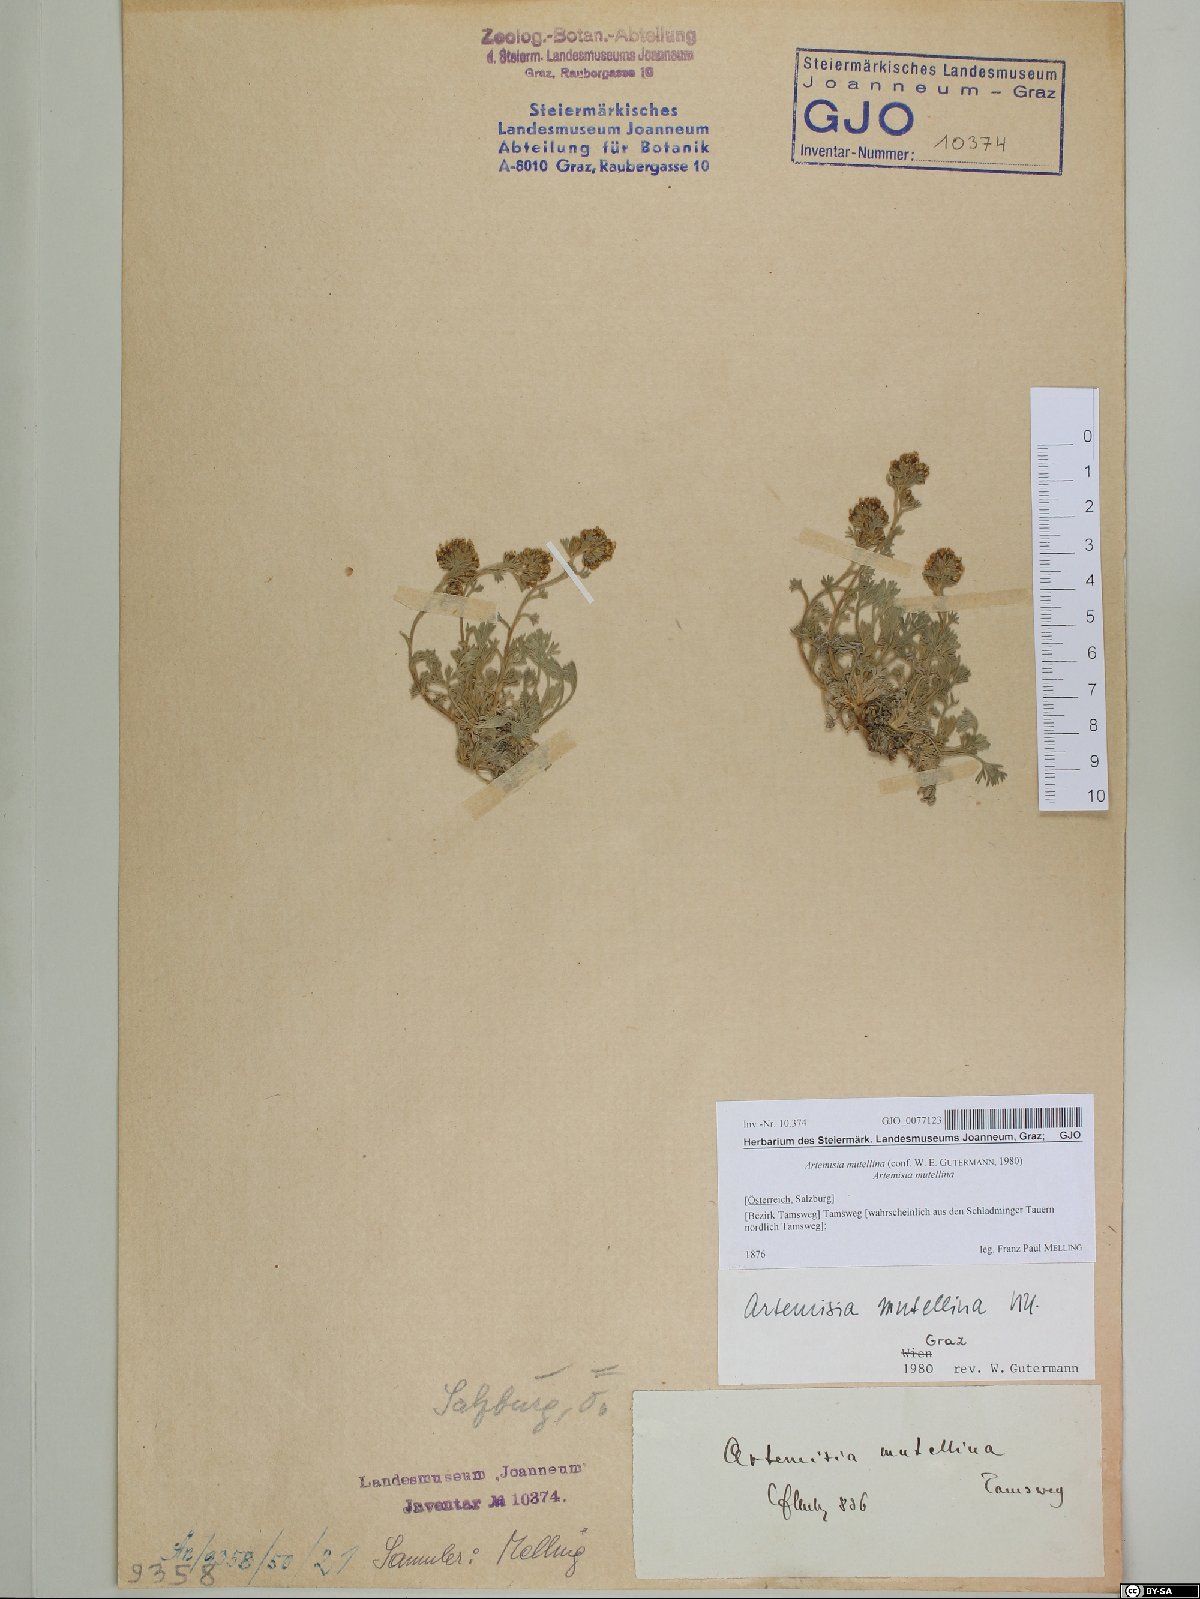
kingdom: Plantae
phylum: Tracheophyta
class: Magnoliopsida
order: Asterales
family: Asteraceae
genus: Artemisia
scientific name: Artemisia mutellina
